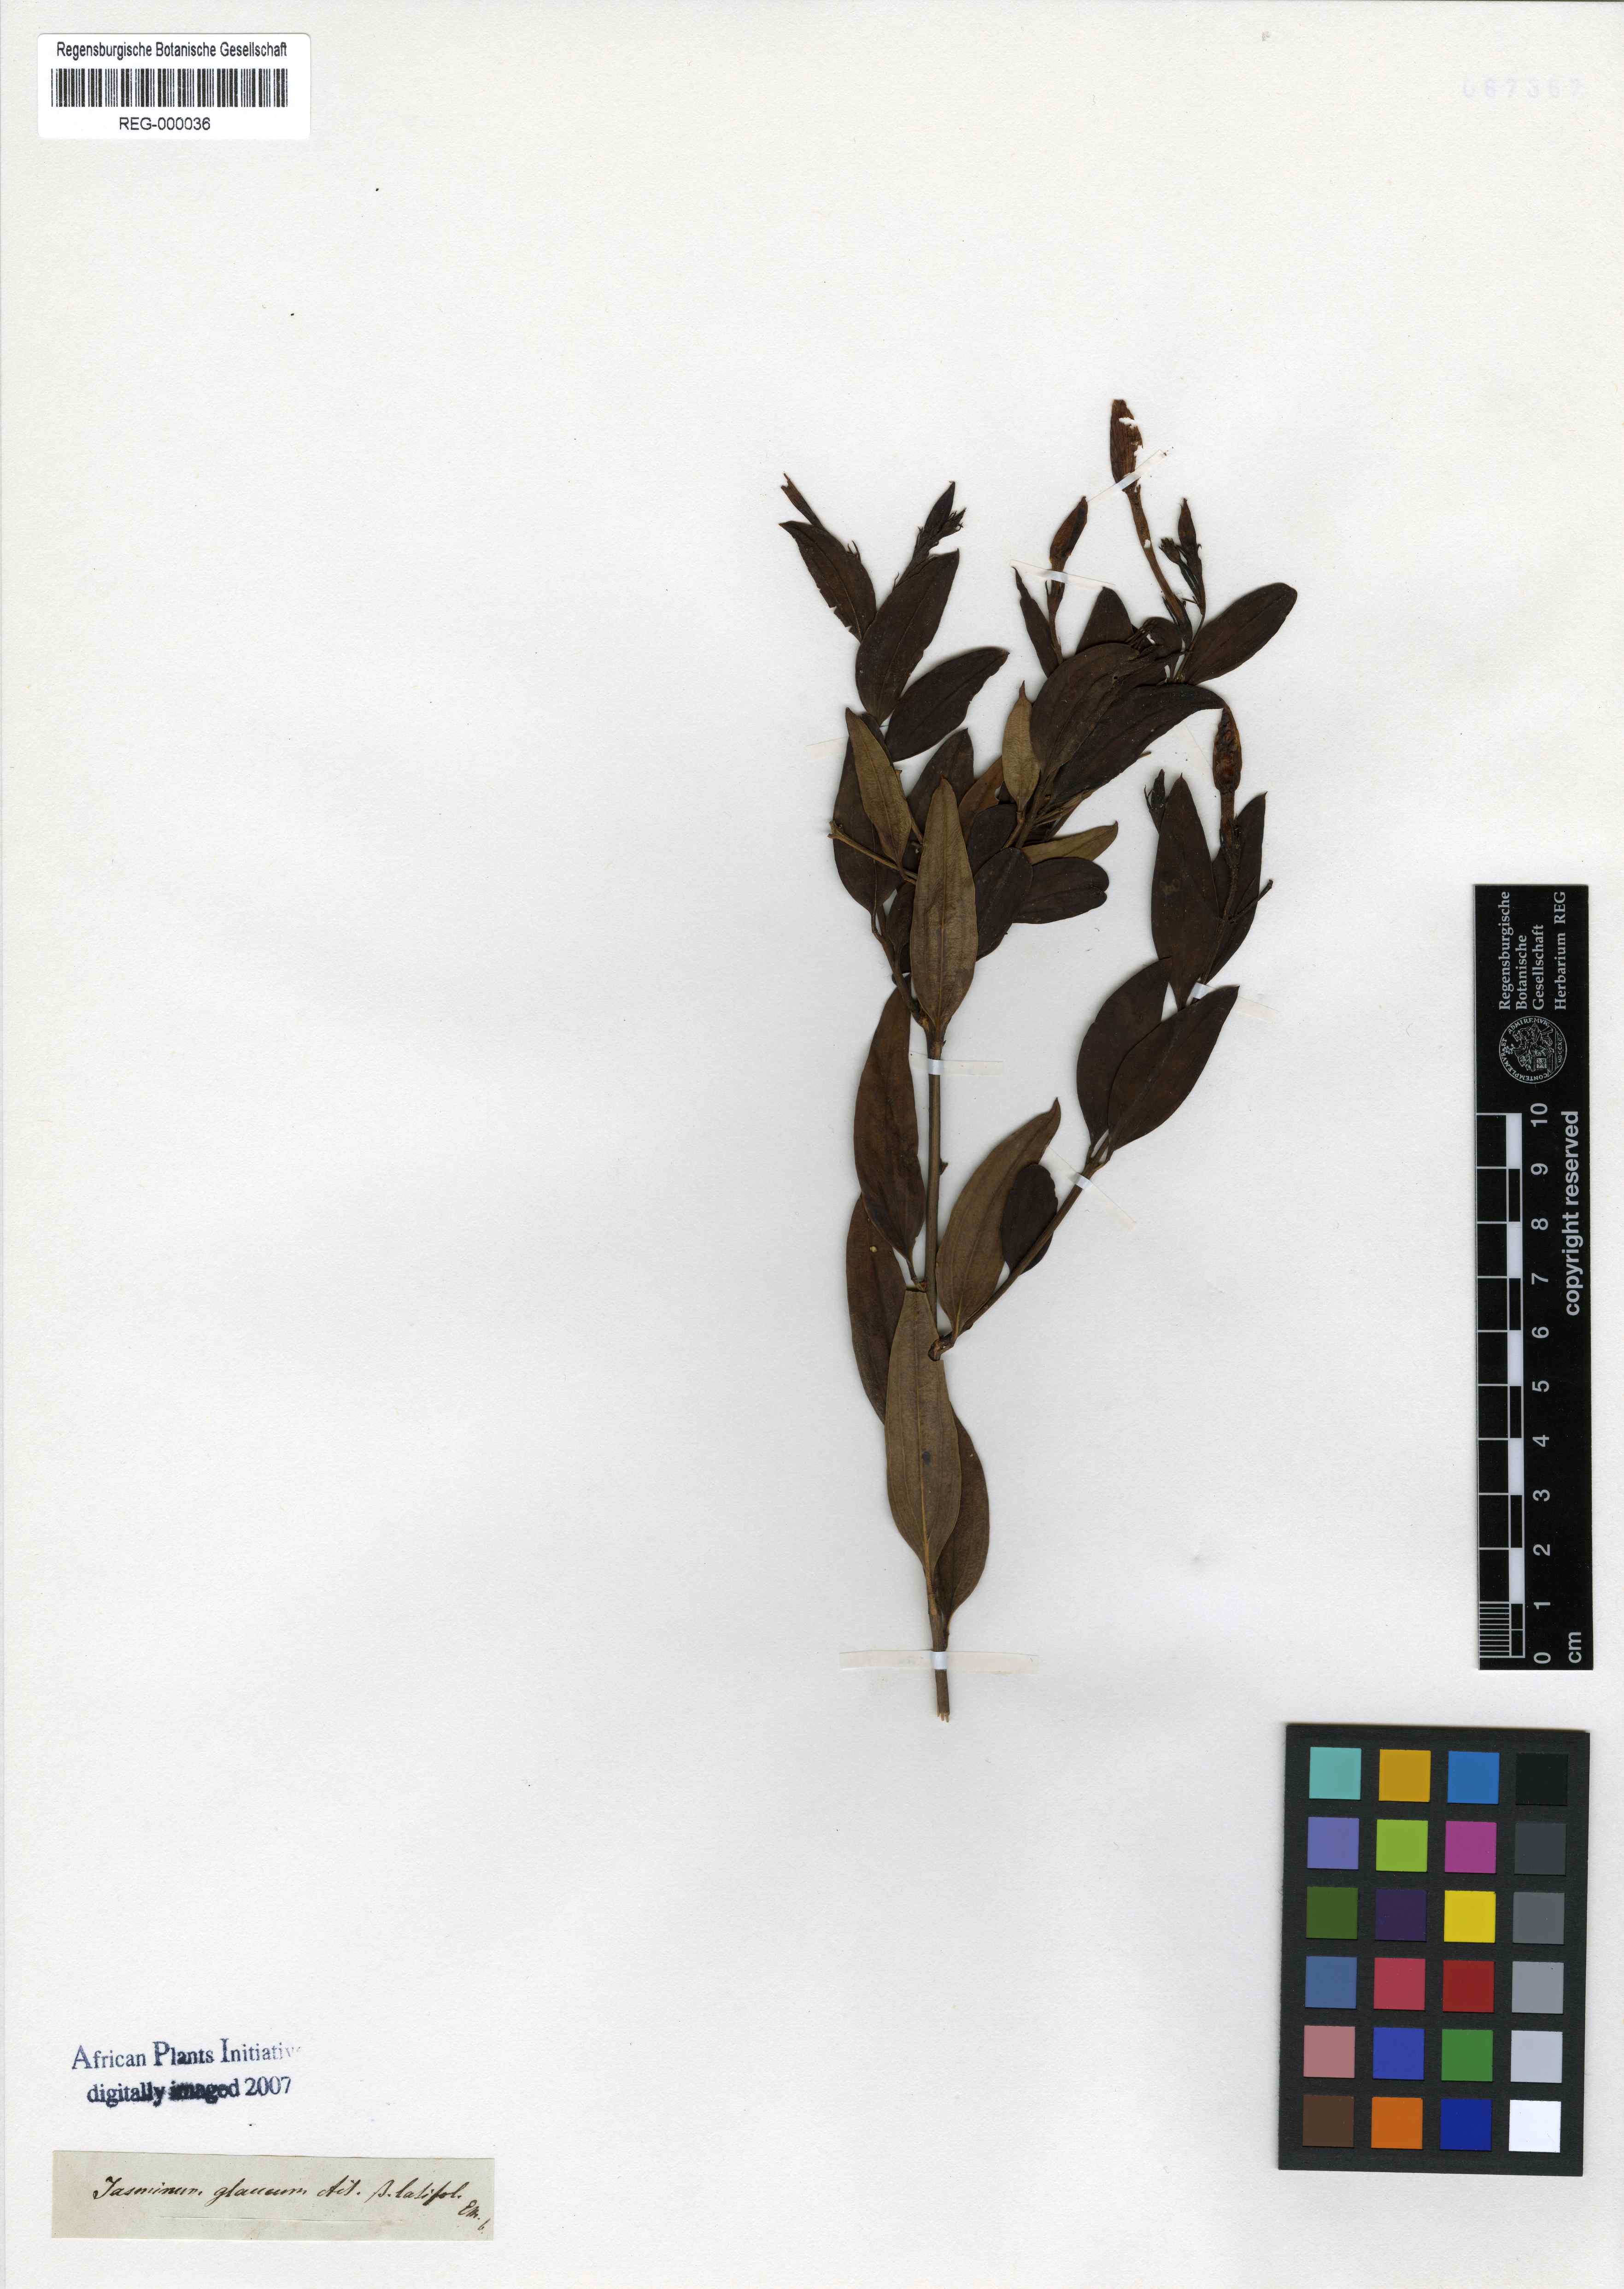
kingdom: Plantae
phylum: Tracheophyta
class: Magnoliopsida
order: Lamiales
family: Oleaceae
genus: Jasminum
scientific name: Jasminum glaucum
